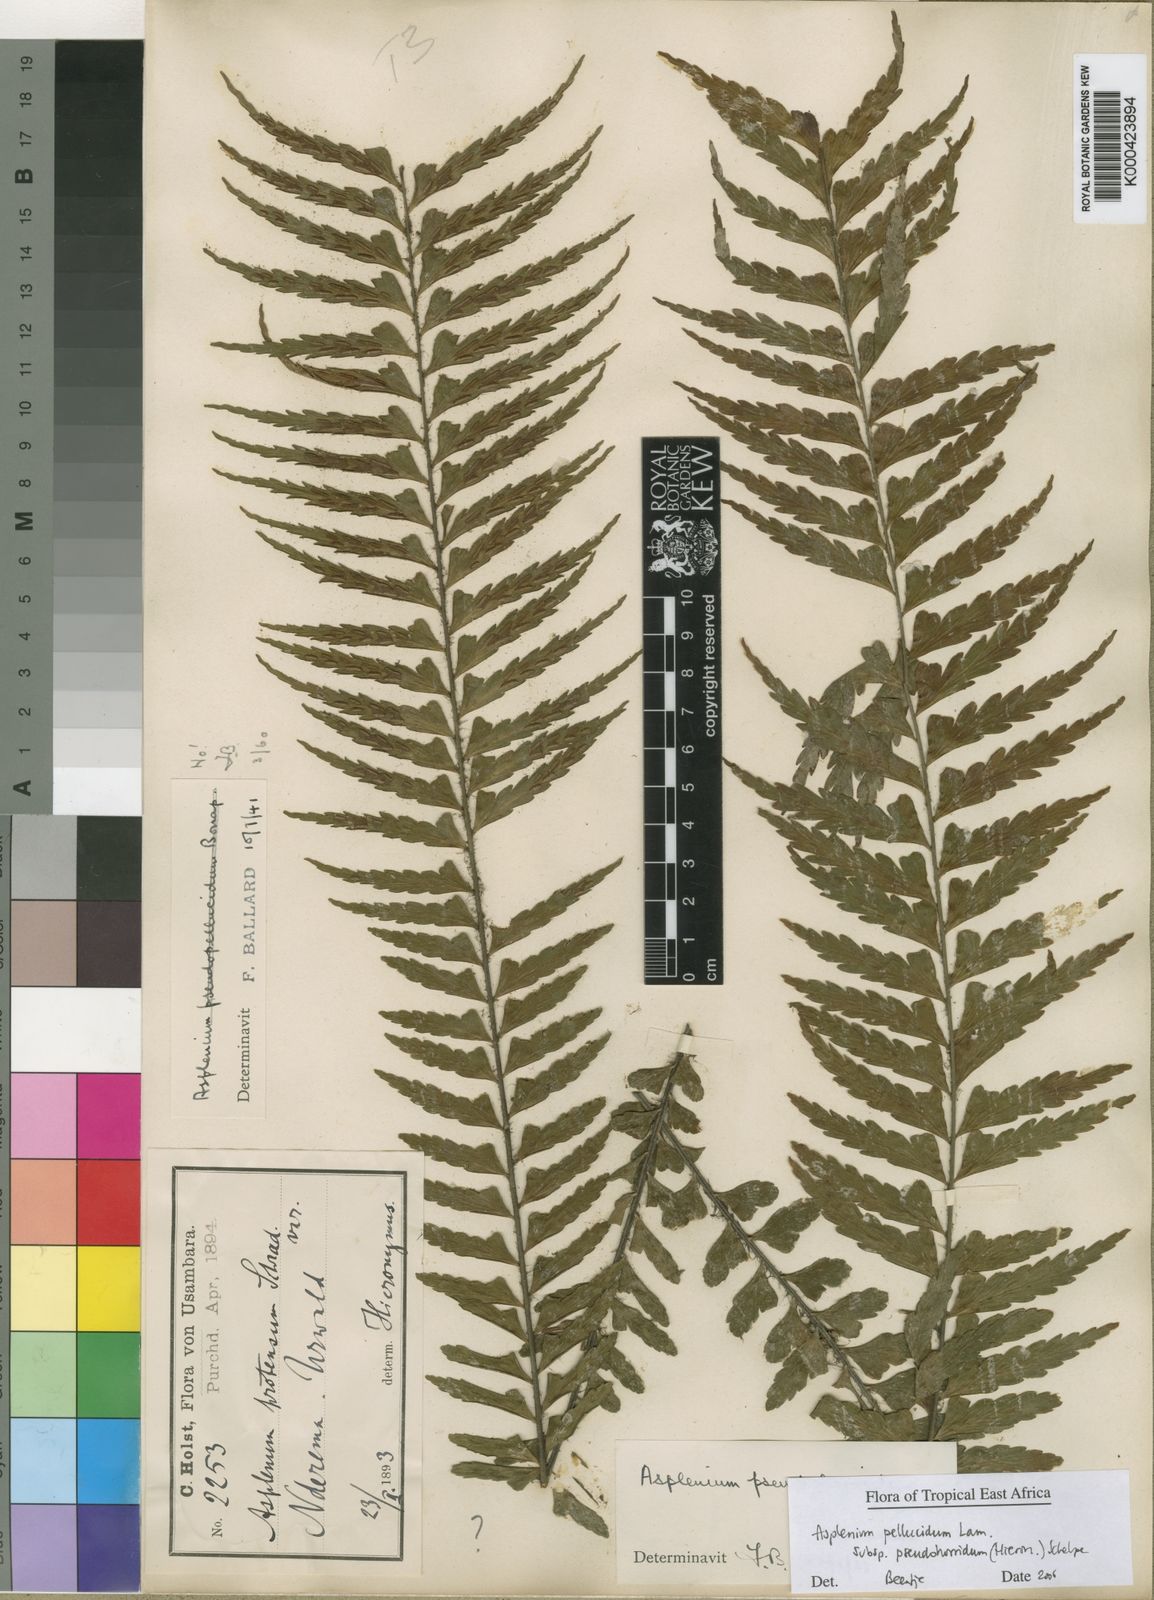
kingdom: Plantae
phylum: Tracheophyta
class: Polypodiopsida
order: Polypodiales
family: Aspleniaceae
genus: Asplenium
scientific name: Asplenium pellucidum
